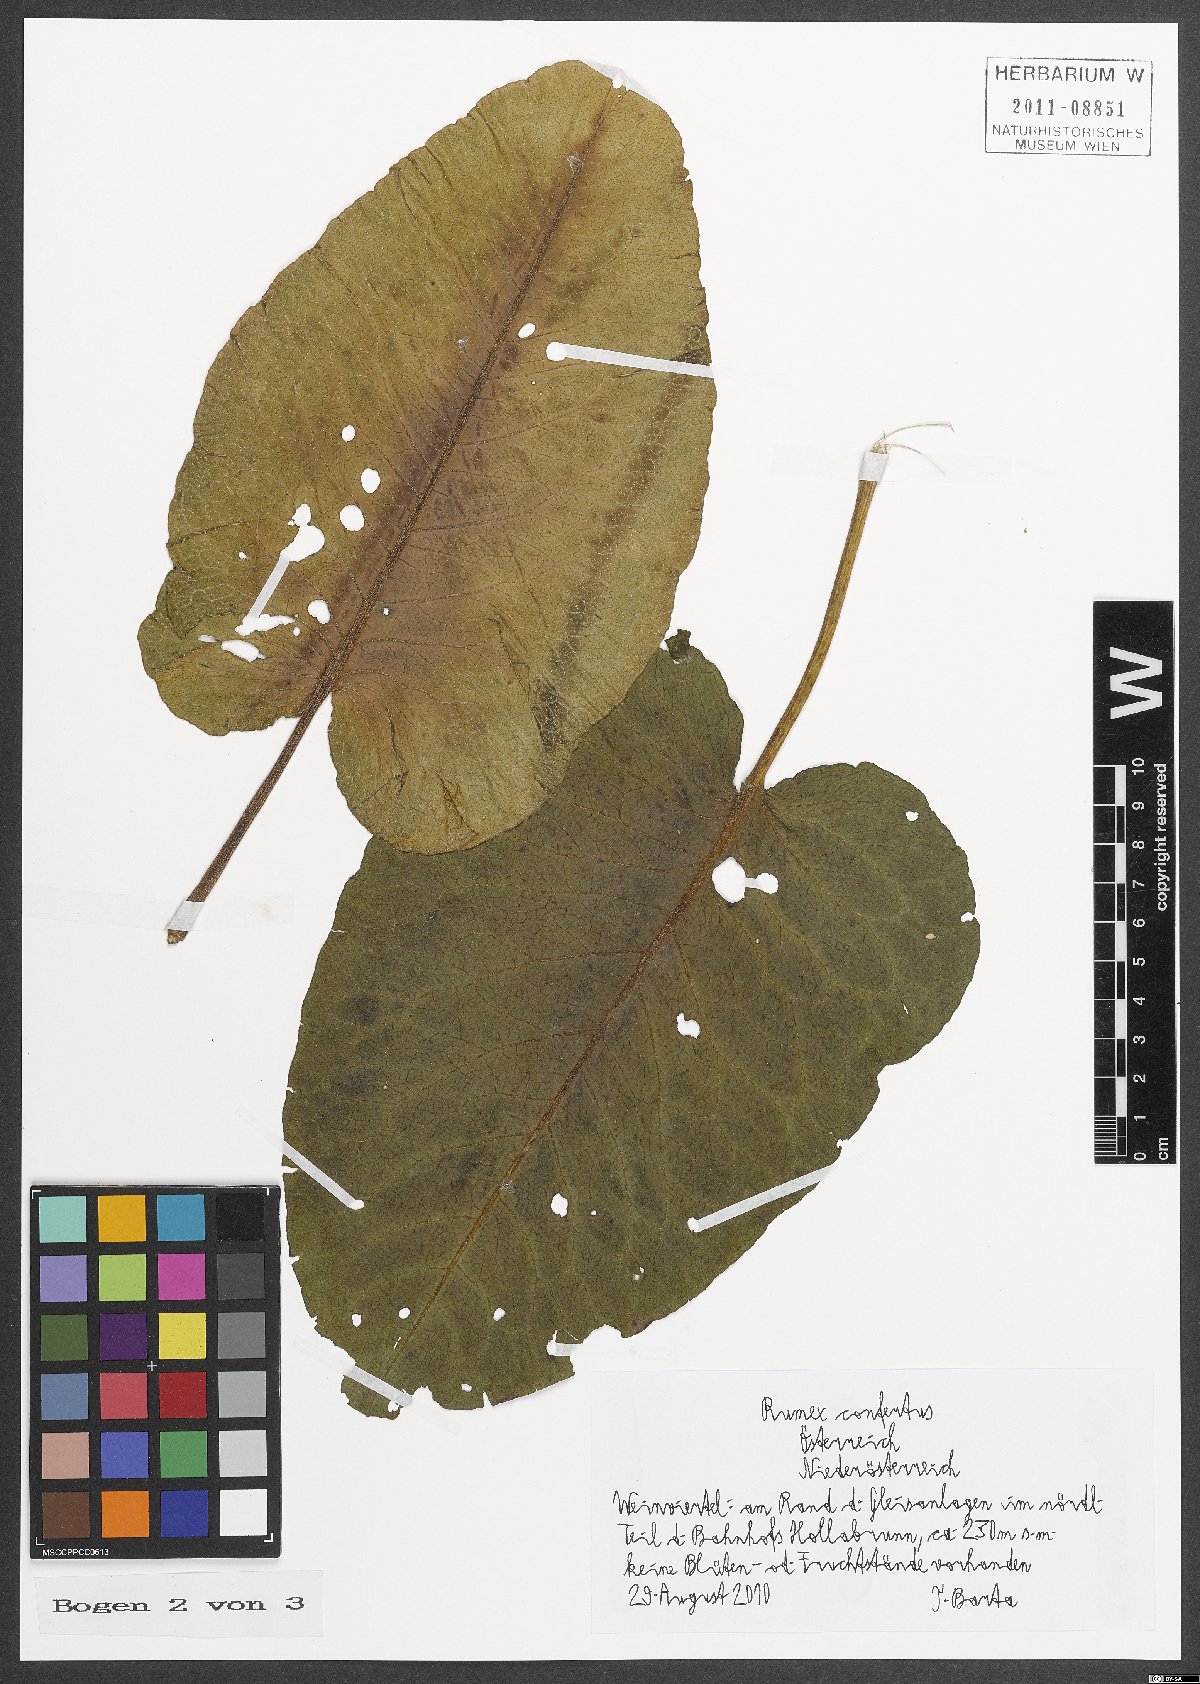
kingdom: Plantae
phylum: Tracheophyta
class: Magnoliopsida
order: Caryophyllales
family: Polygonaceae
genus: Rumex
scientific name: Rumex confertus
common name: Russian dock
